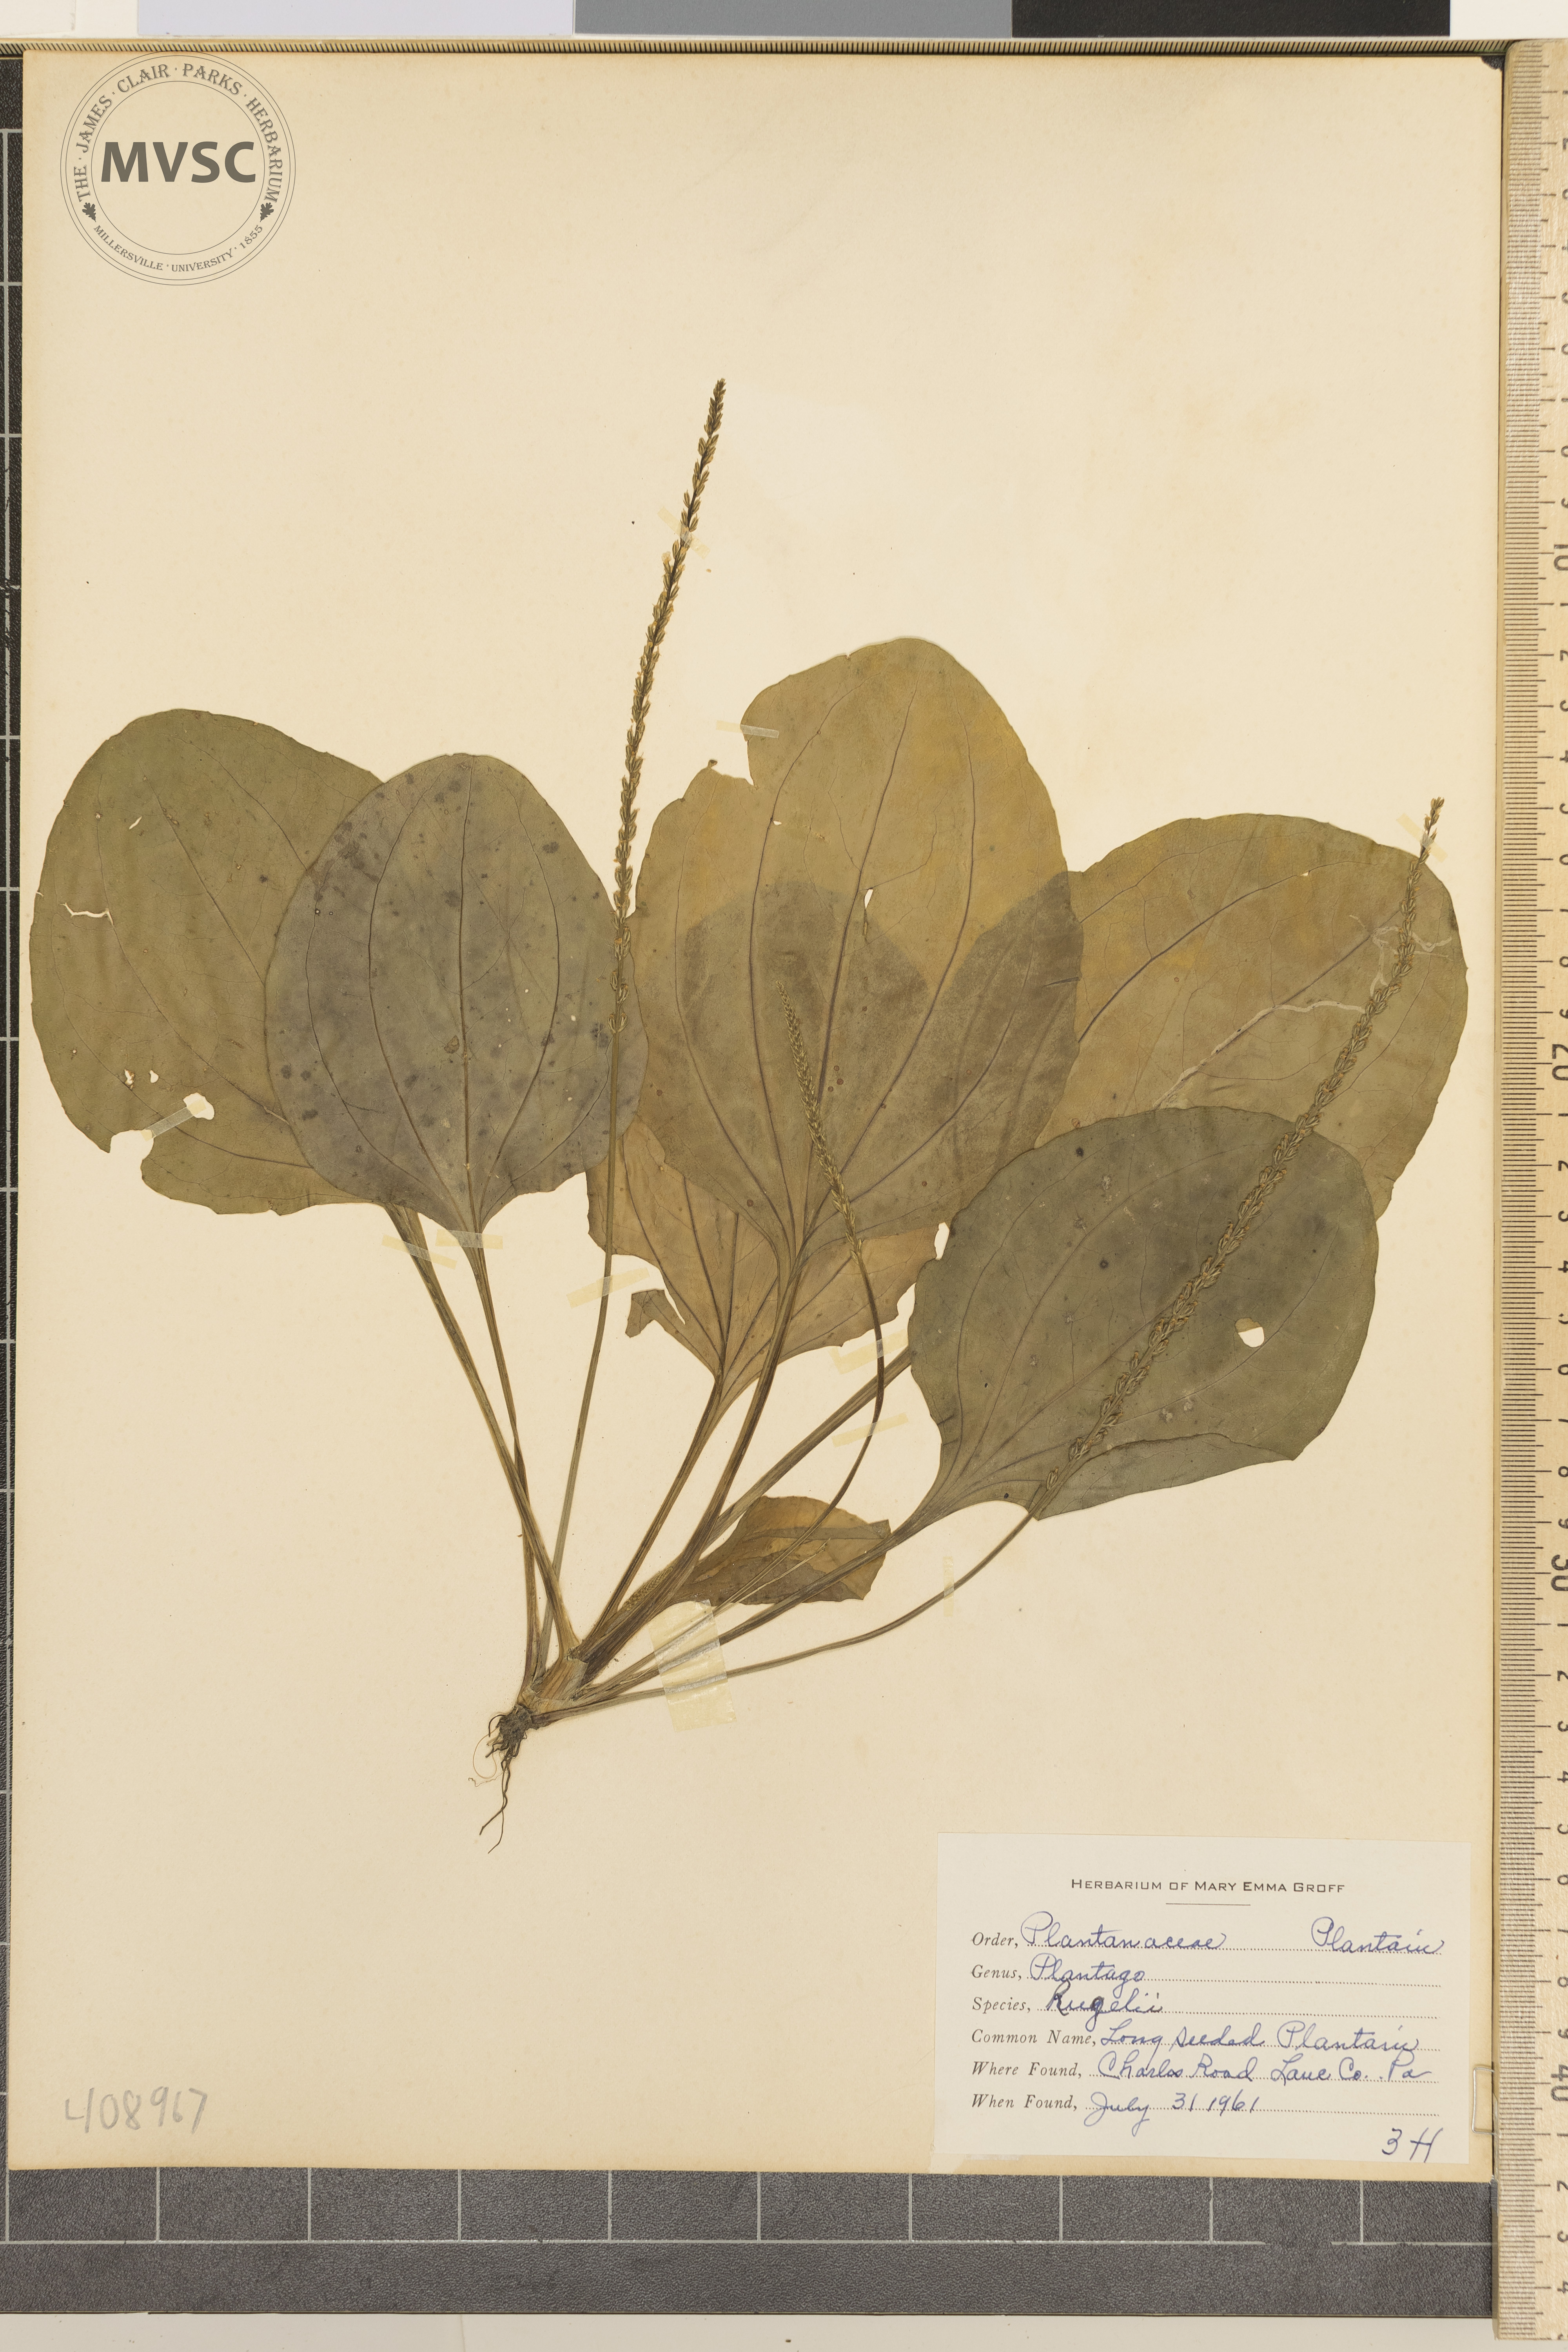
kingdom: Plantae
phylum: Tracheophyta
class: Magnoliopsida
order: Lamiales
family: Plantaginaceae
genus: Plantago
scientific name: Plantago rugelii
